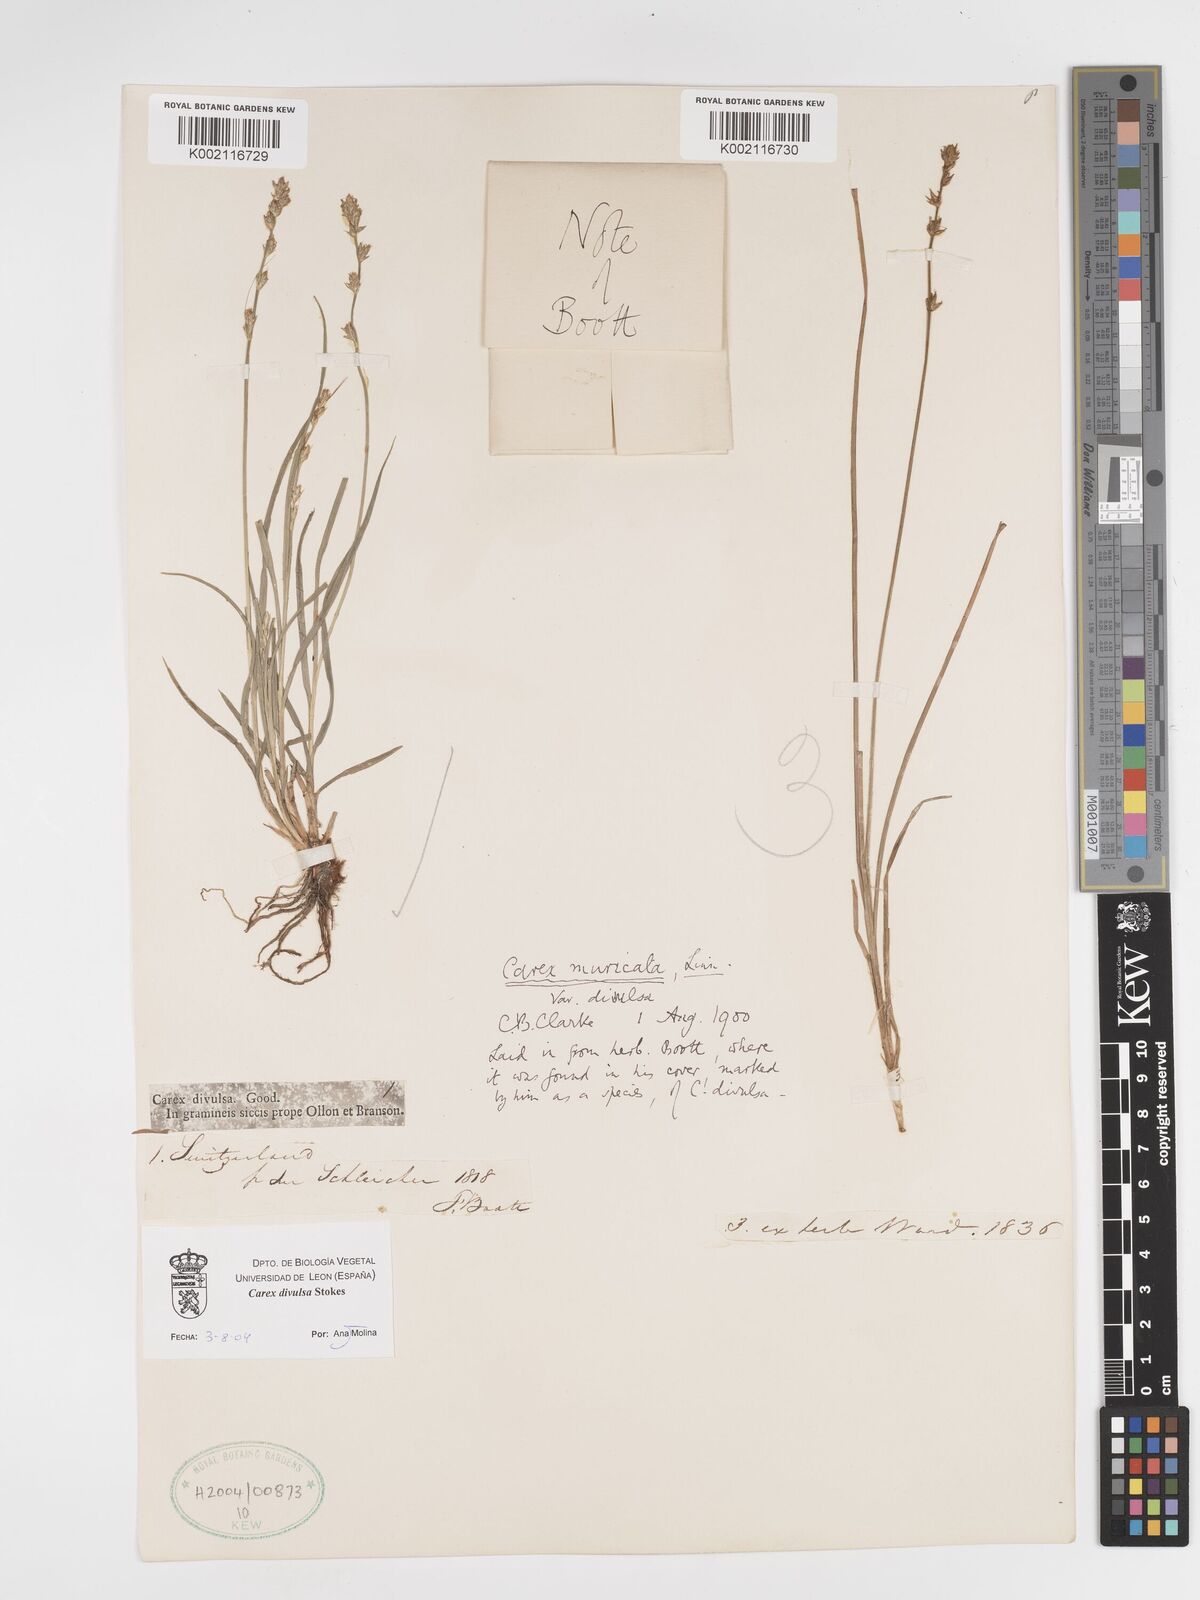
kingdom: Plantae
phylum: Tracheophyta
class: Liliopsida
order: Poales
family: Cyperaceae
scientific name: Cyperaceae
